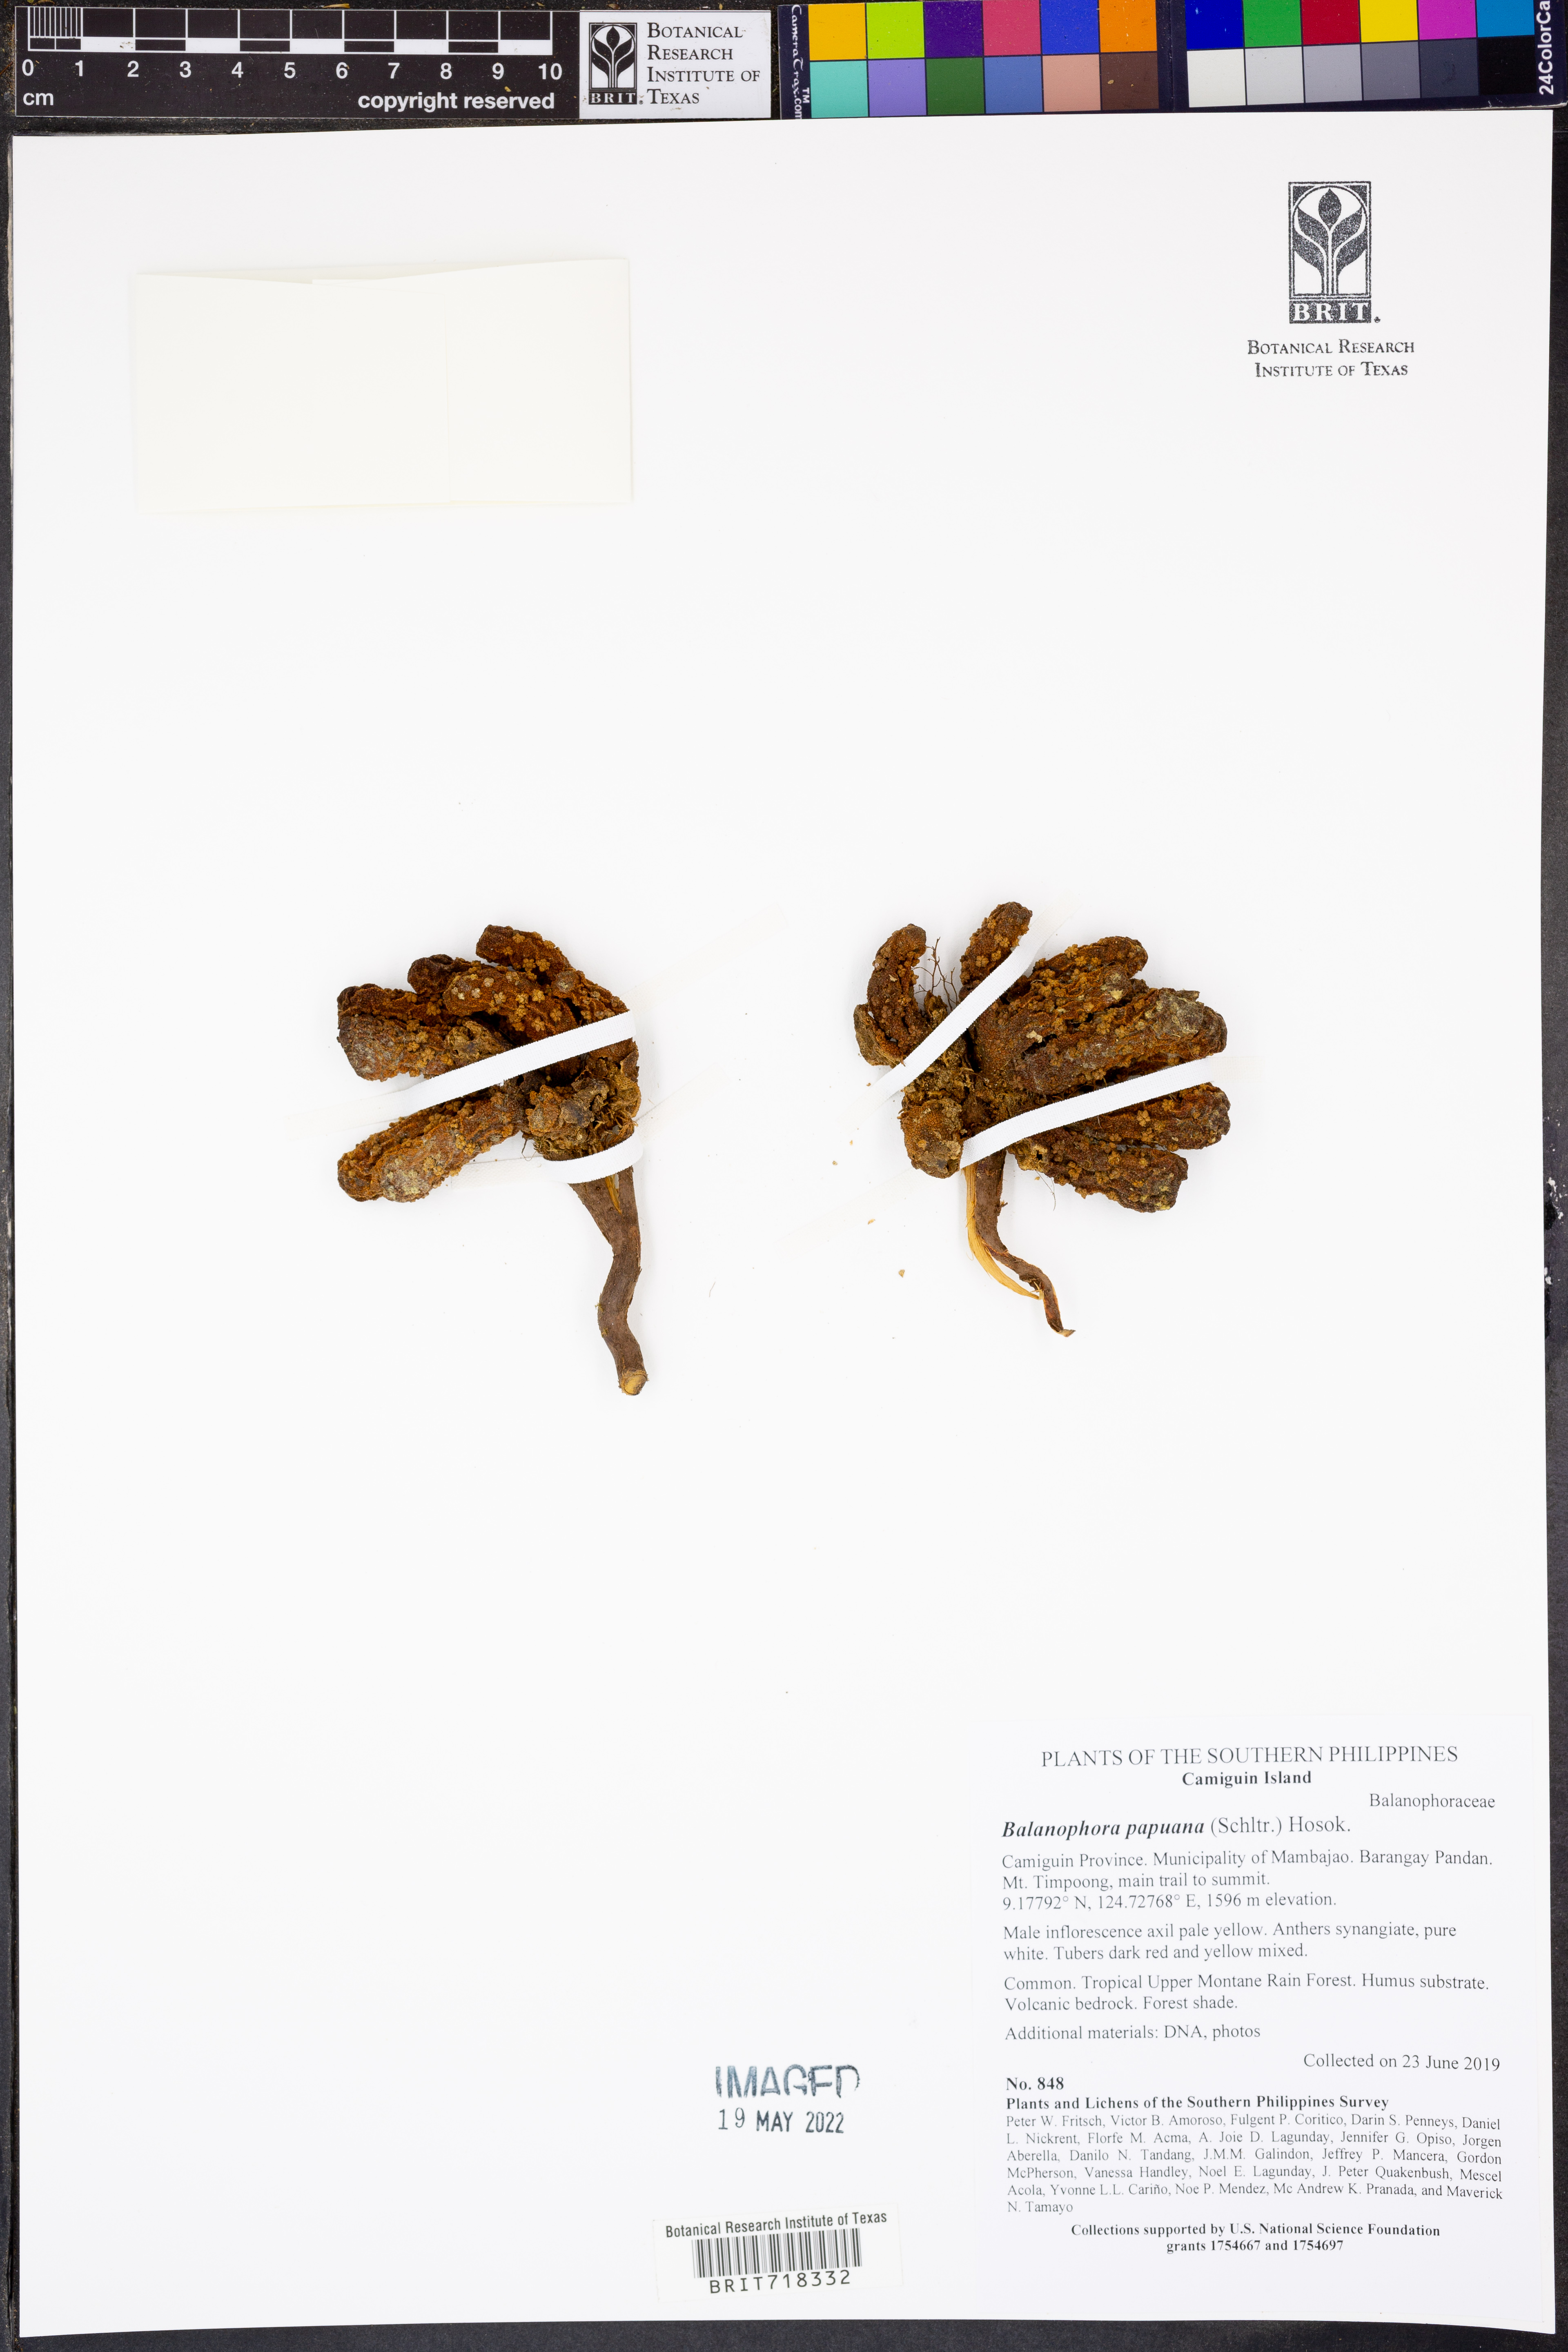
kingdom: Plantae
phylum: Tracheophyta
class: Magnoliopsida
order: Santalales
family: Balanophoraceae
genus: Balanophora
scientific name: Balanophora papuana
